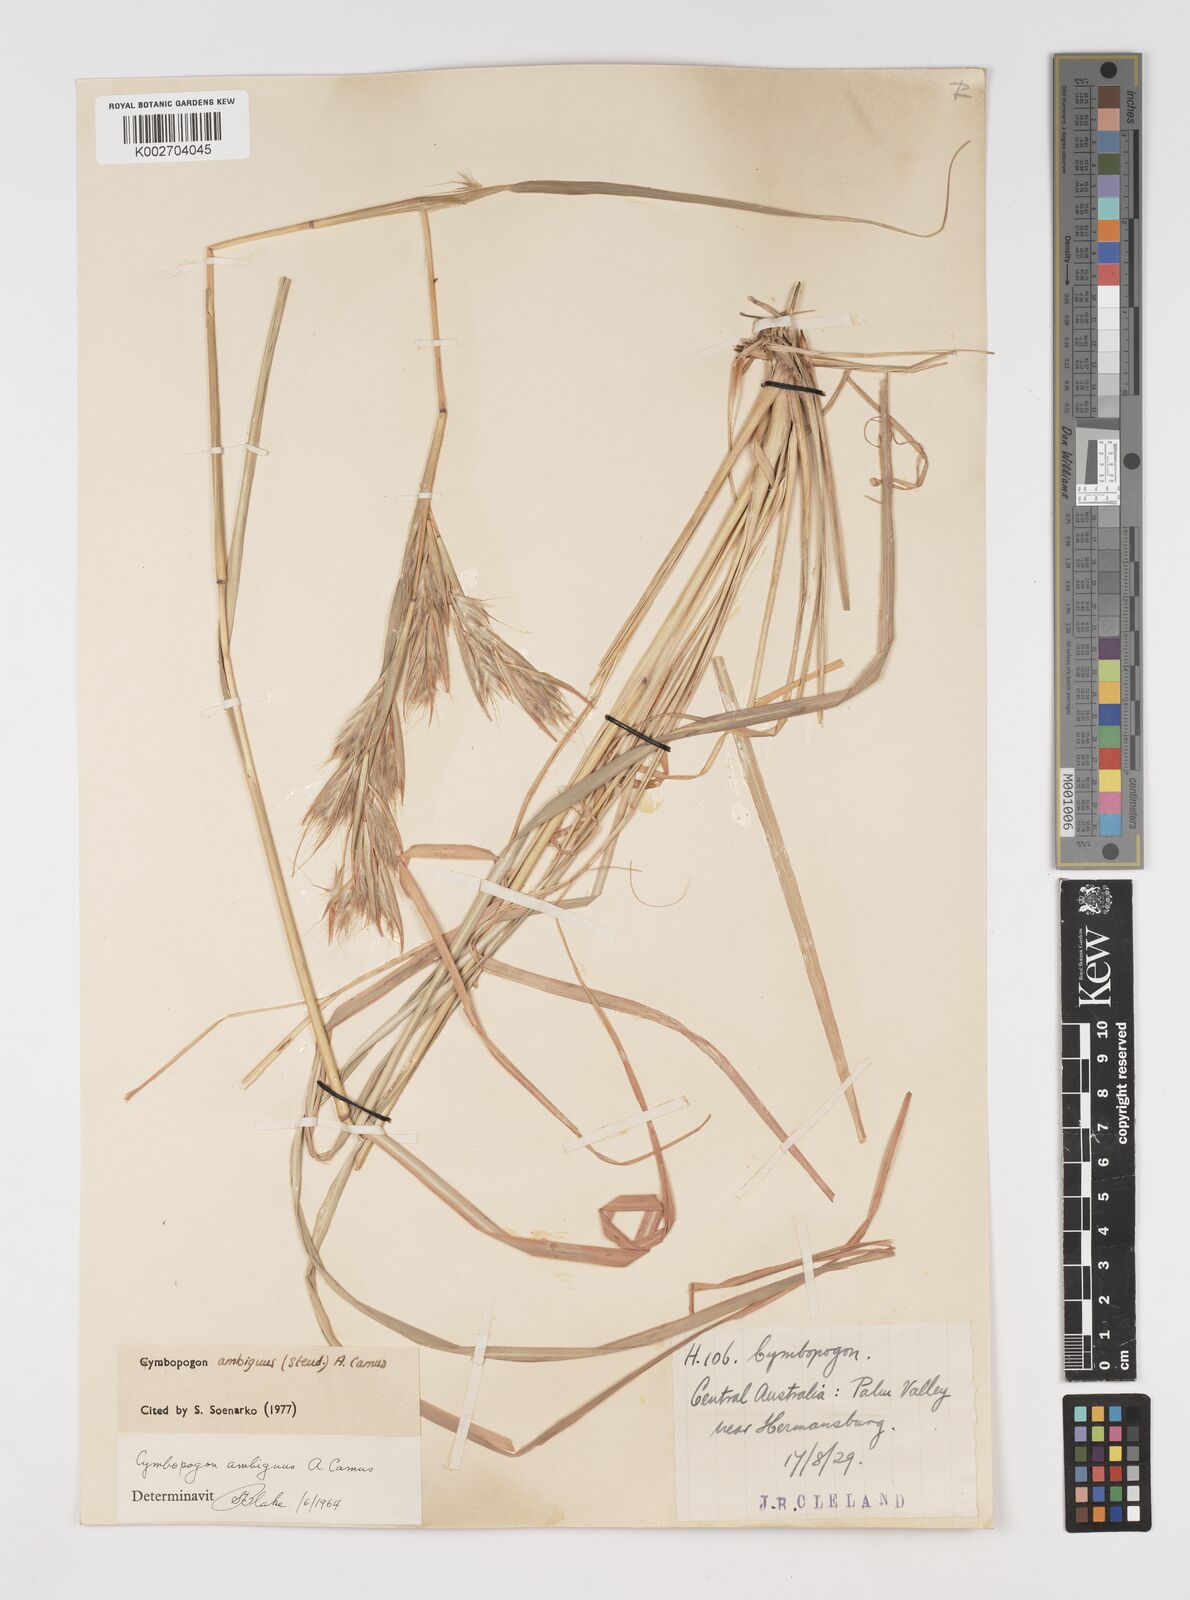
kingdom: Plantae
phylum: Tracheophyta
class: Liliopsida
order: Poales
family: Poaceae
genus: Cymbopogon
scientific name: Cymbopogon ambiguus
